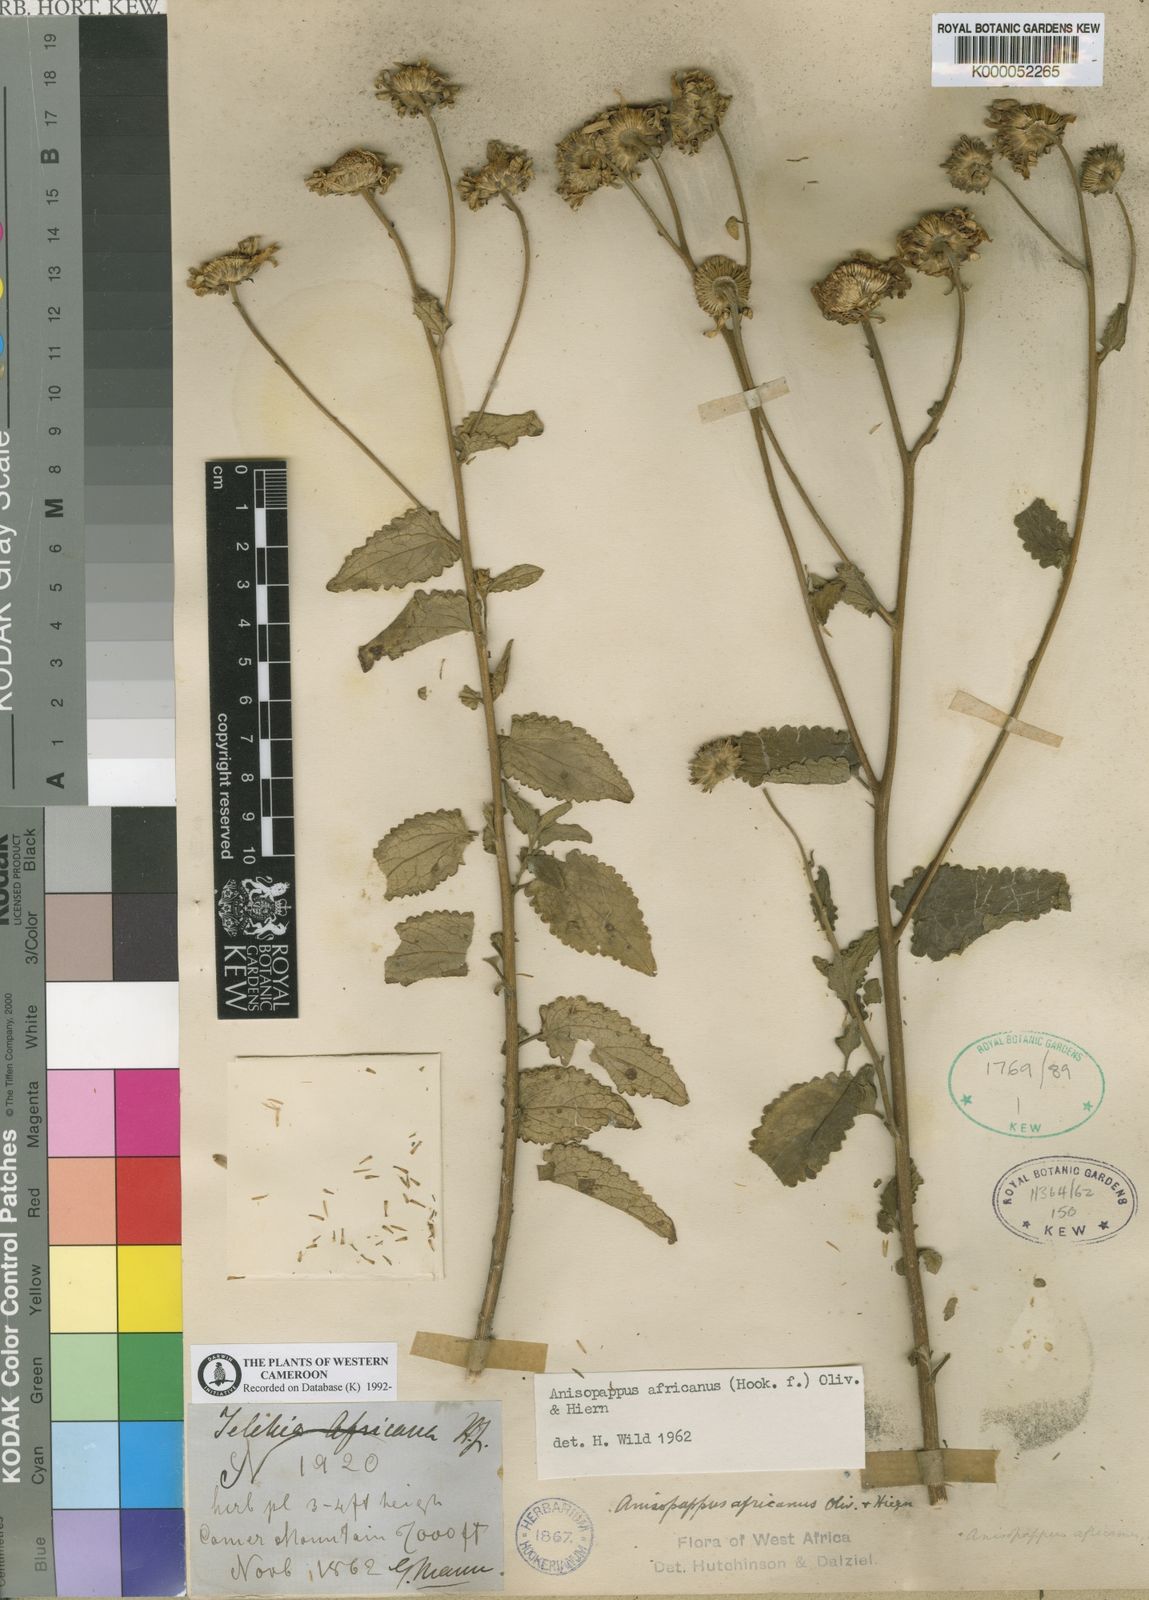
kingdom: Plantae
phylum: Tracheophyta
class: Magnoliopsida
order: Asterales
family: Asteraceae
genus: Anisopappus
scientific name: Anisopappus buchwaldii
